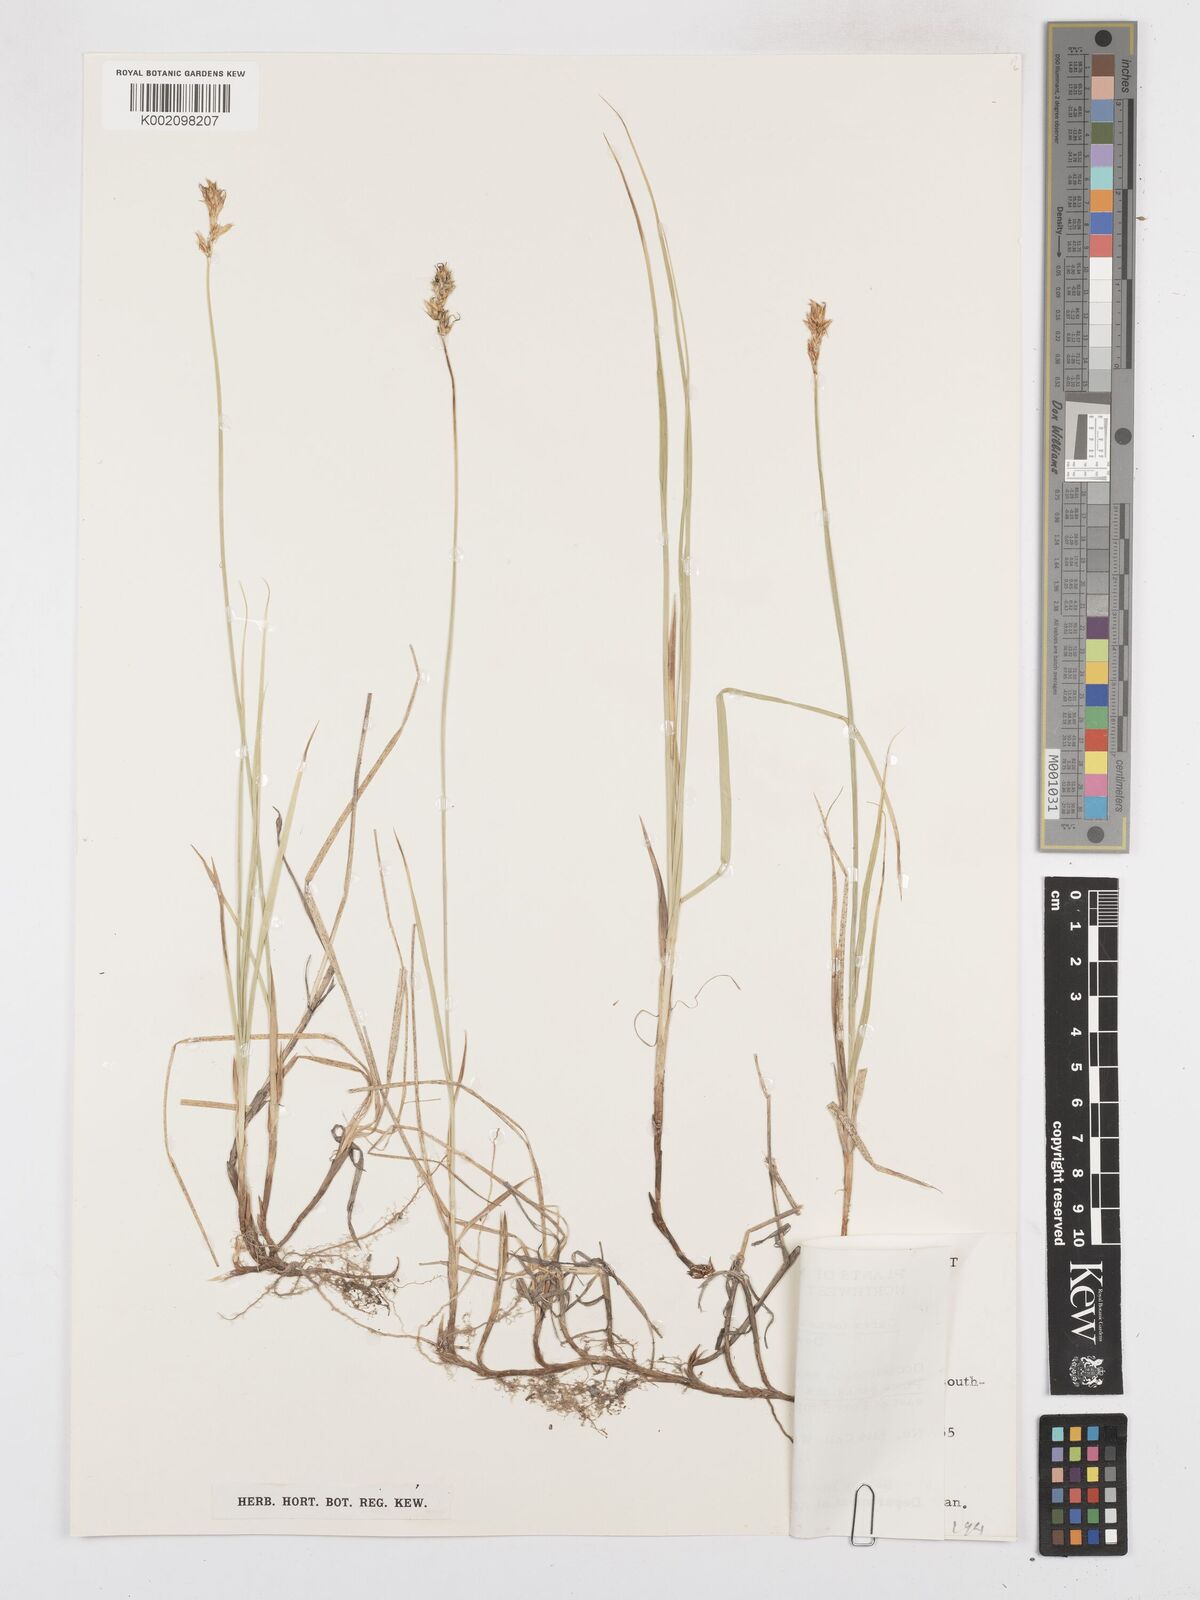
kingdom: Plantae
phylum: Tracheophyta
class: Liliopsida
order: Poales
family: Cyperaceae
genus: Carex
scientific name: Carex foenea
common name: Bronze sedge
